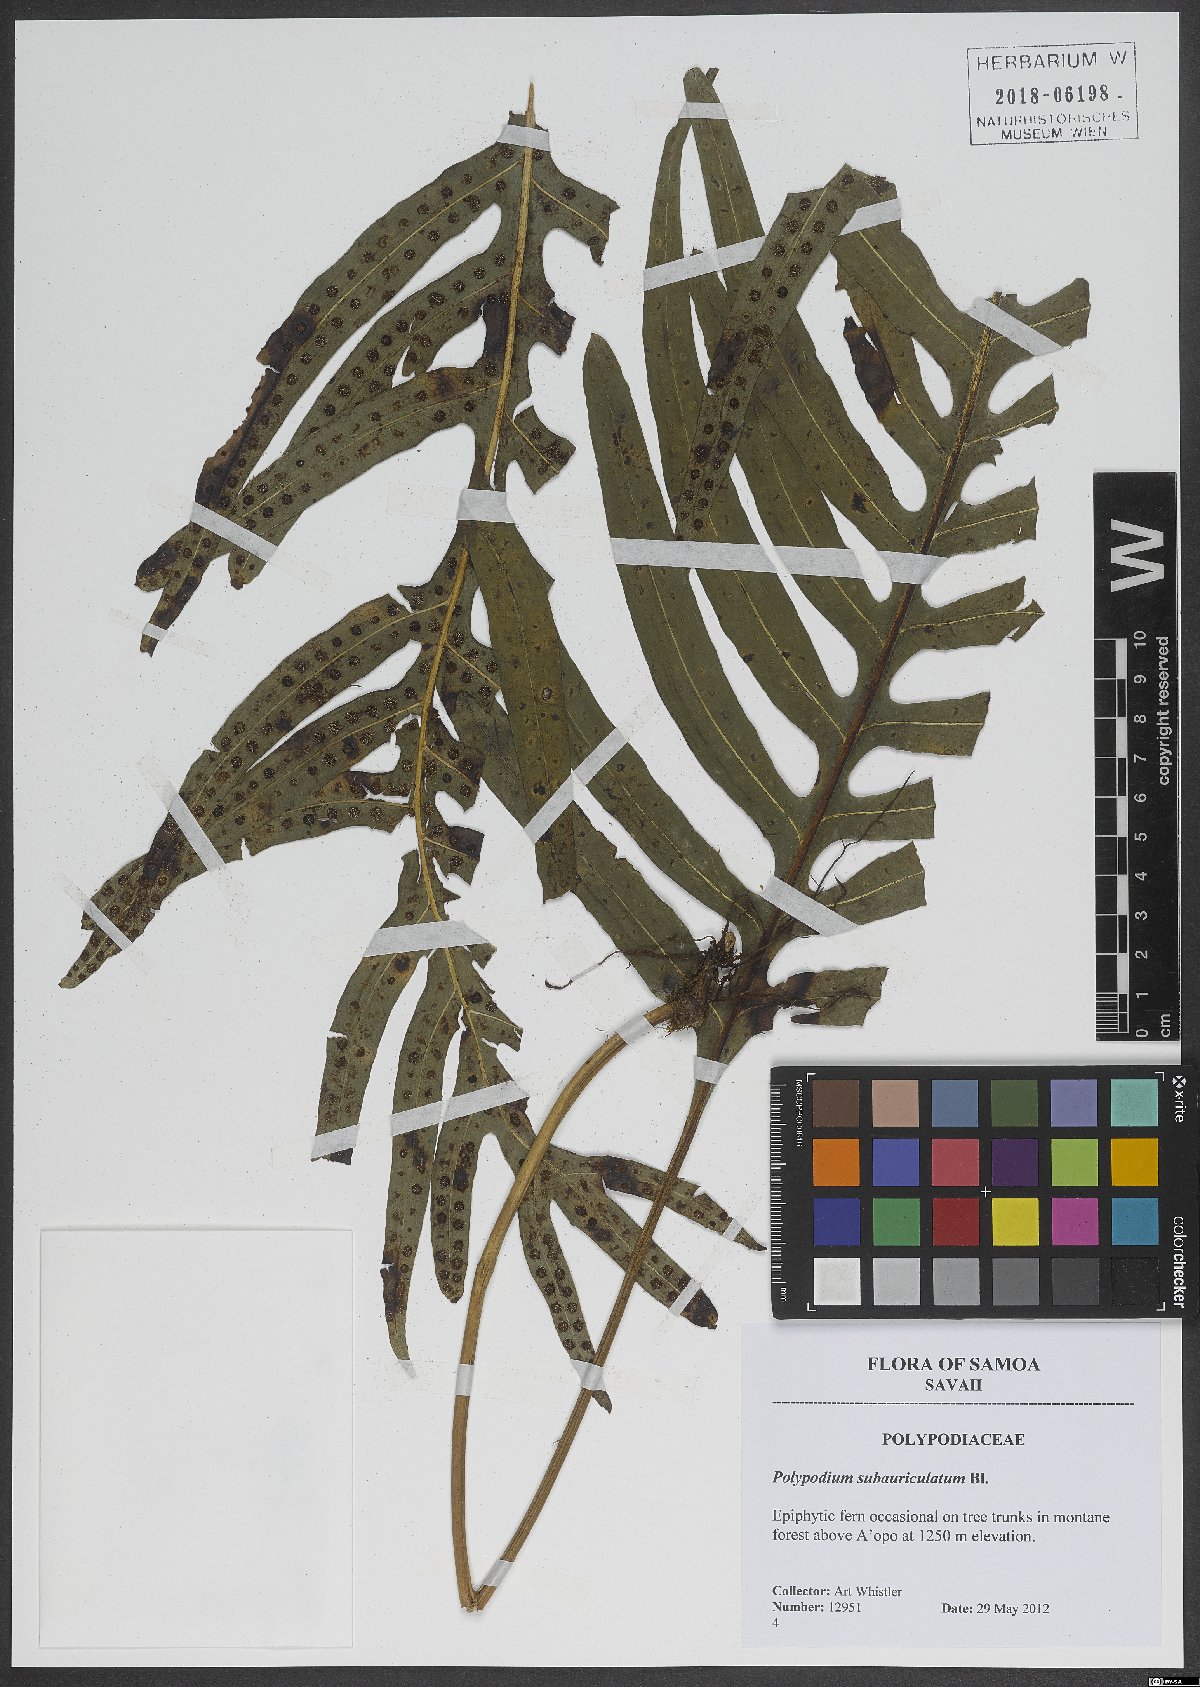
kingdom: Plantae
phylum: Tracheophyta
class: Polypodiopsida
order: Polypodiales
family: Polypodiaceae
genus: Goniophlebium
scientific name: Goniophlebium subauriculatum
